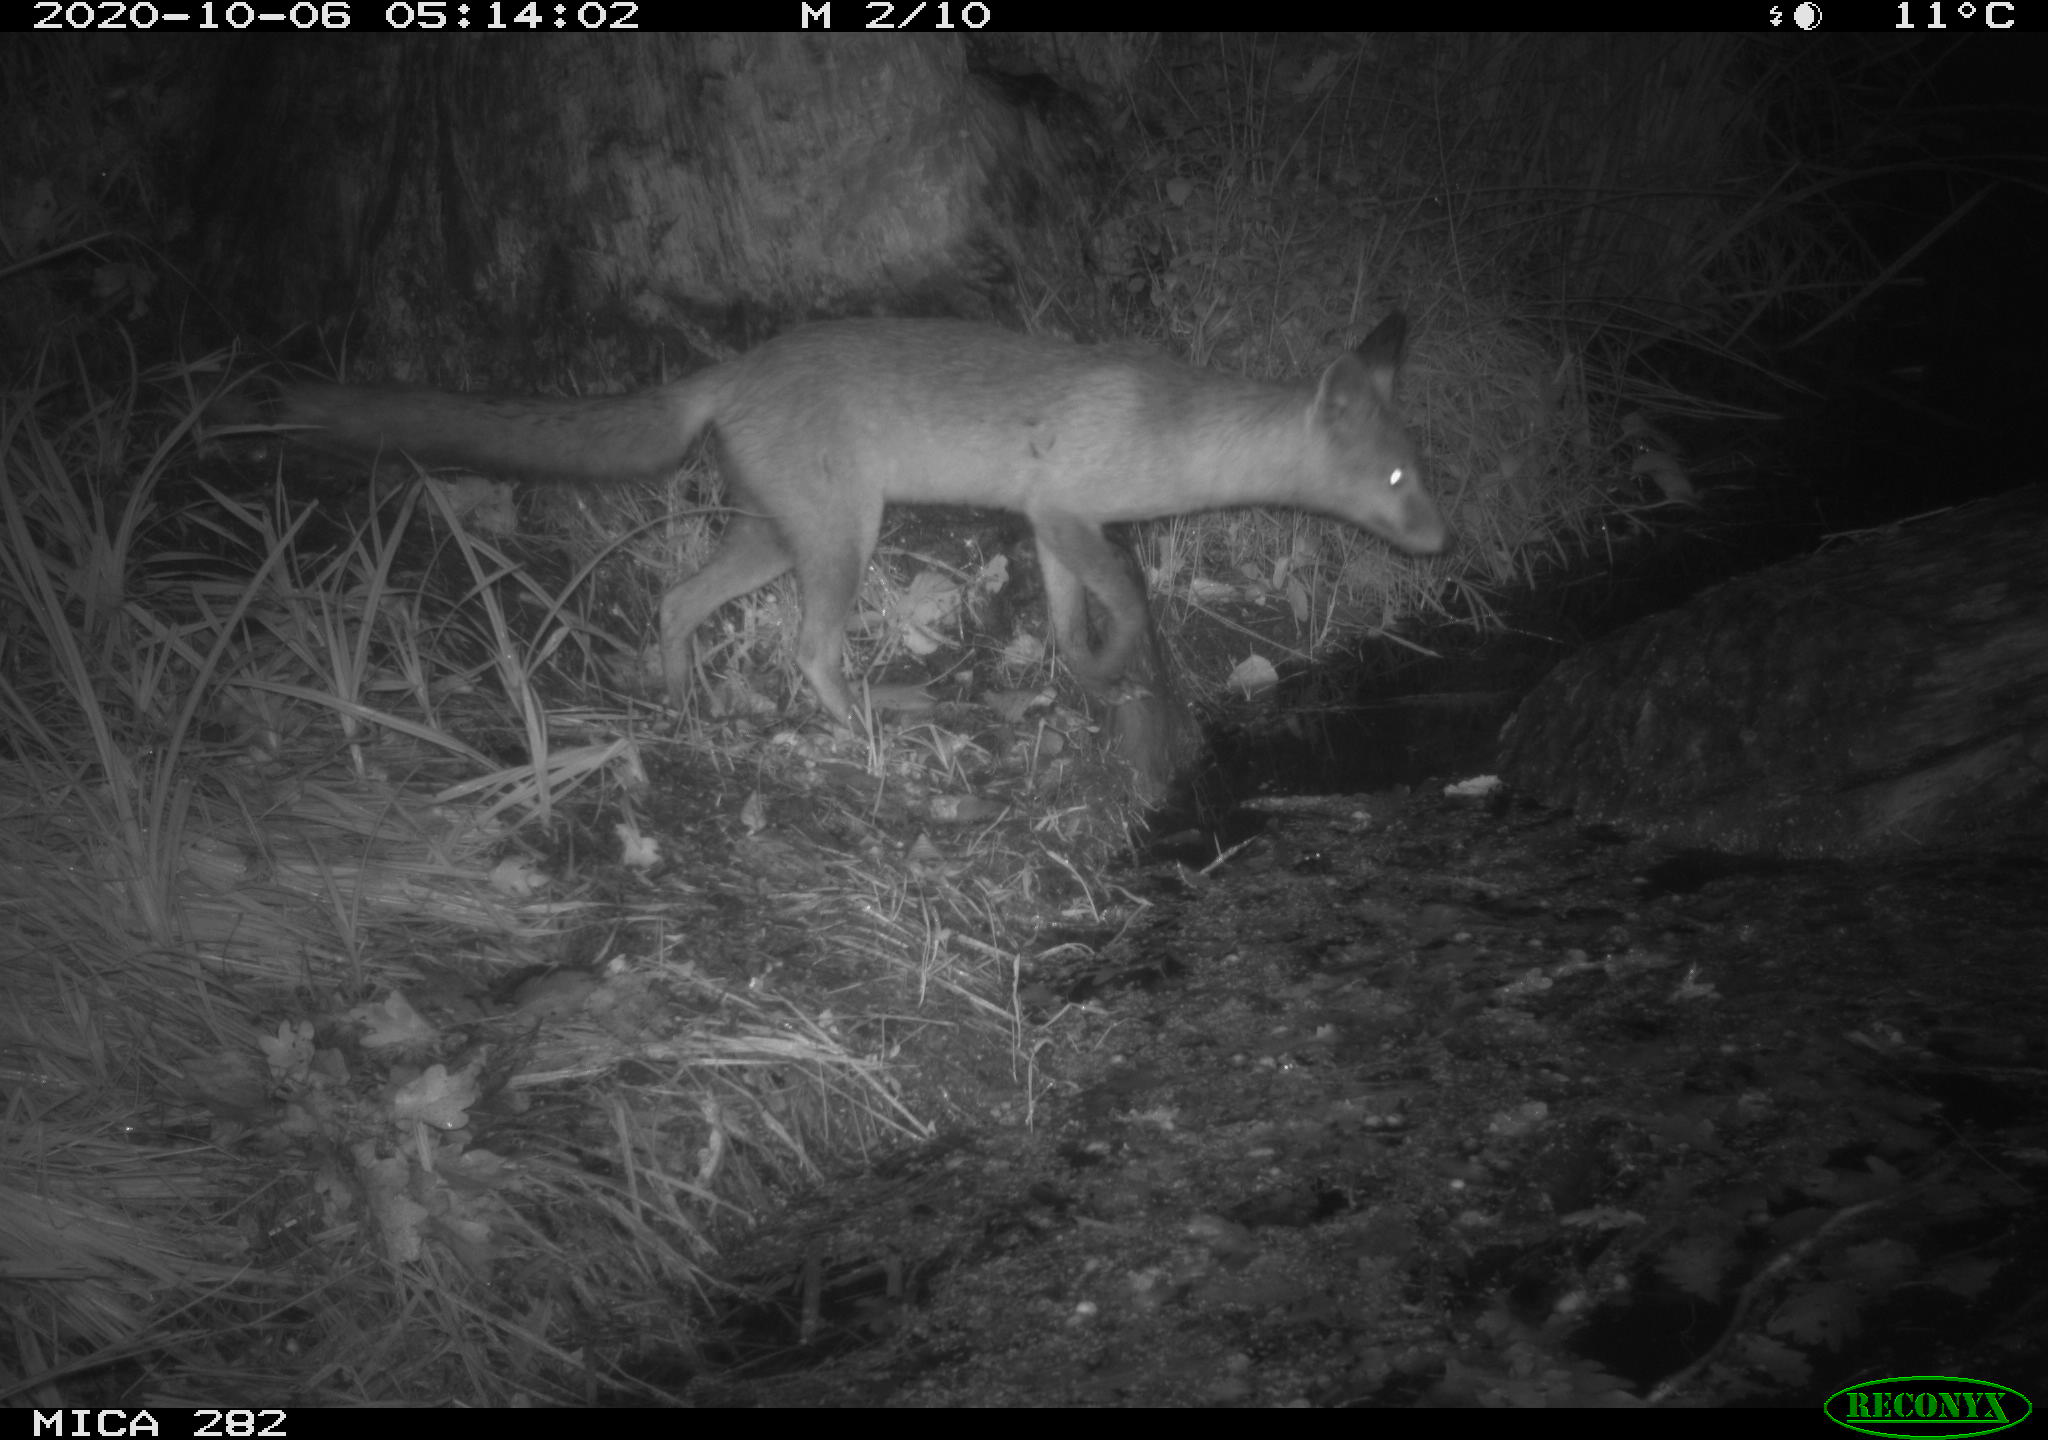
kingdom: Animalia
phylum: Chordata
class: Mammalia
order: Carnivora
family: Canidae
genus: Vulpes
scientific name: Vulpes vulpes
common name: Red fox
